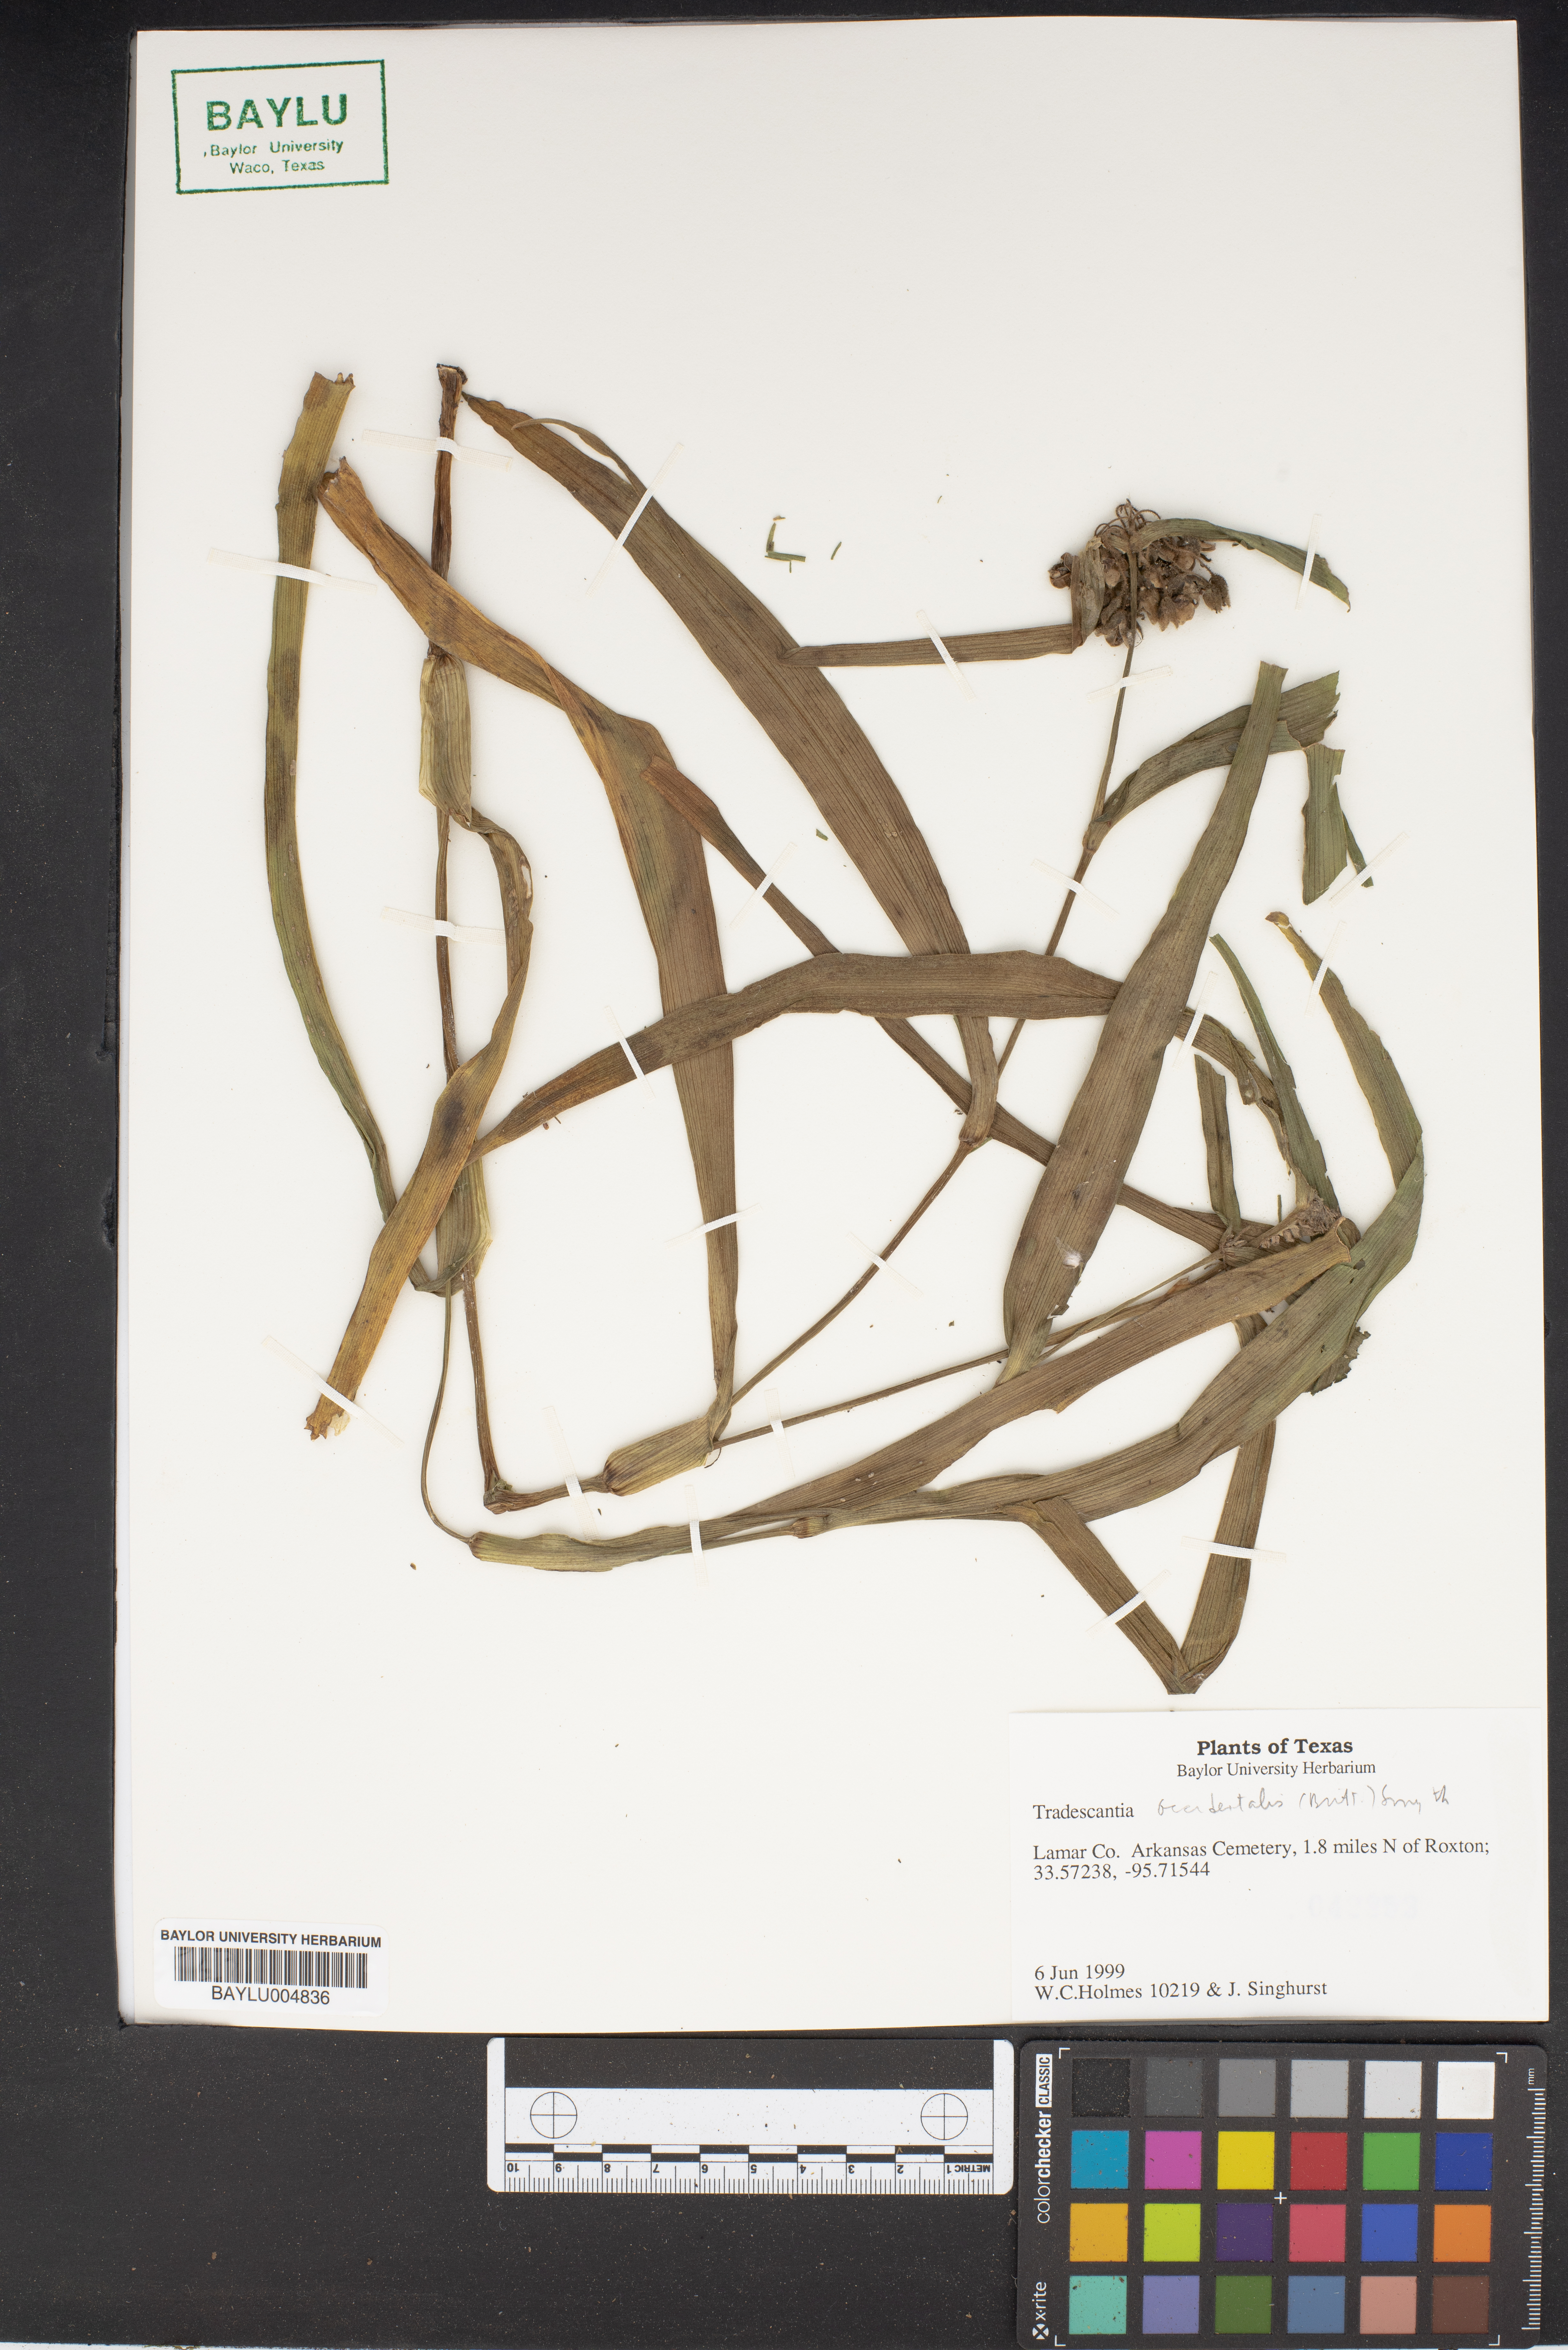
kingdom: Plantae
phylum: Tracheophyta
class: Liliopsida
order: Commelinales
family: Commelinaceae
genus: Tradescantia
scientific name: Tradescantia
